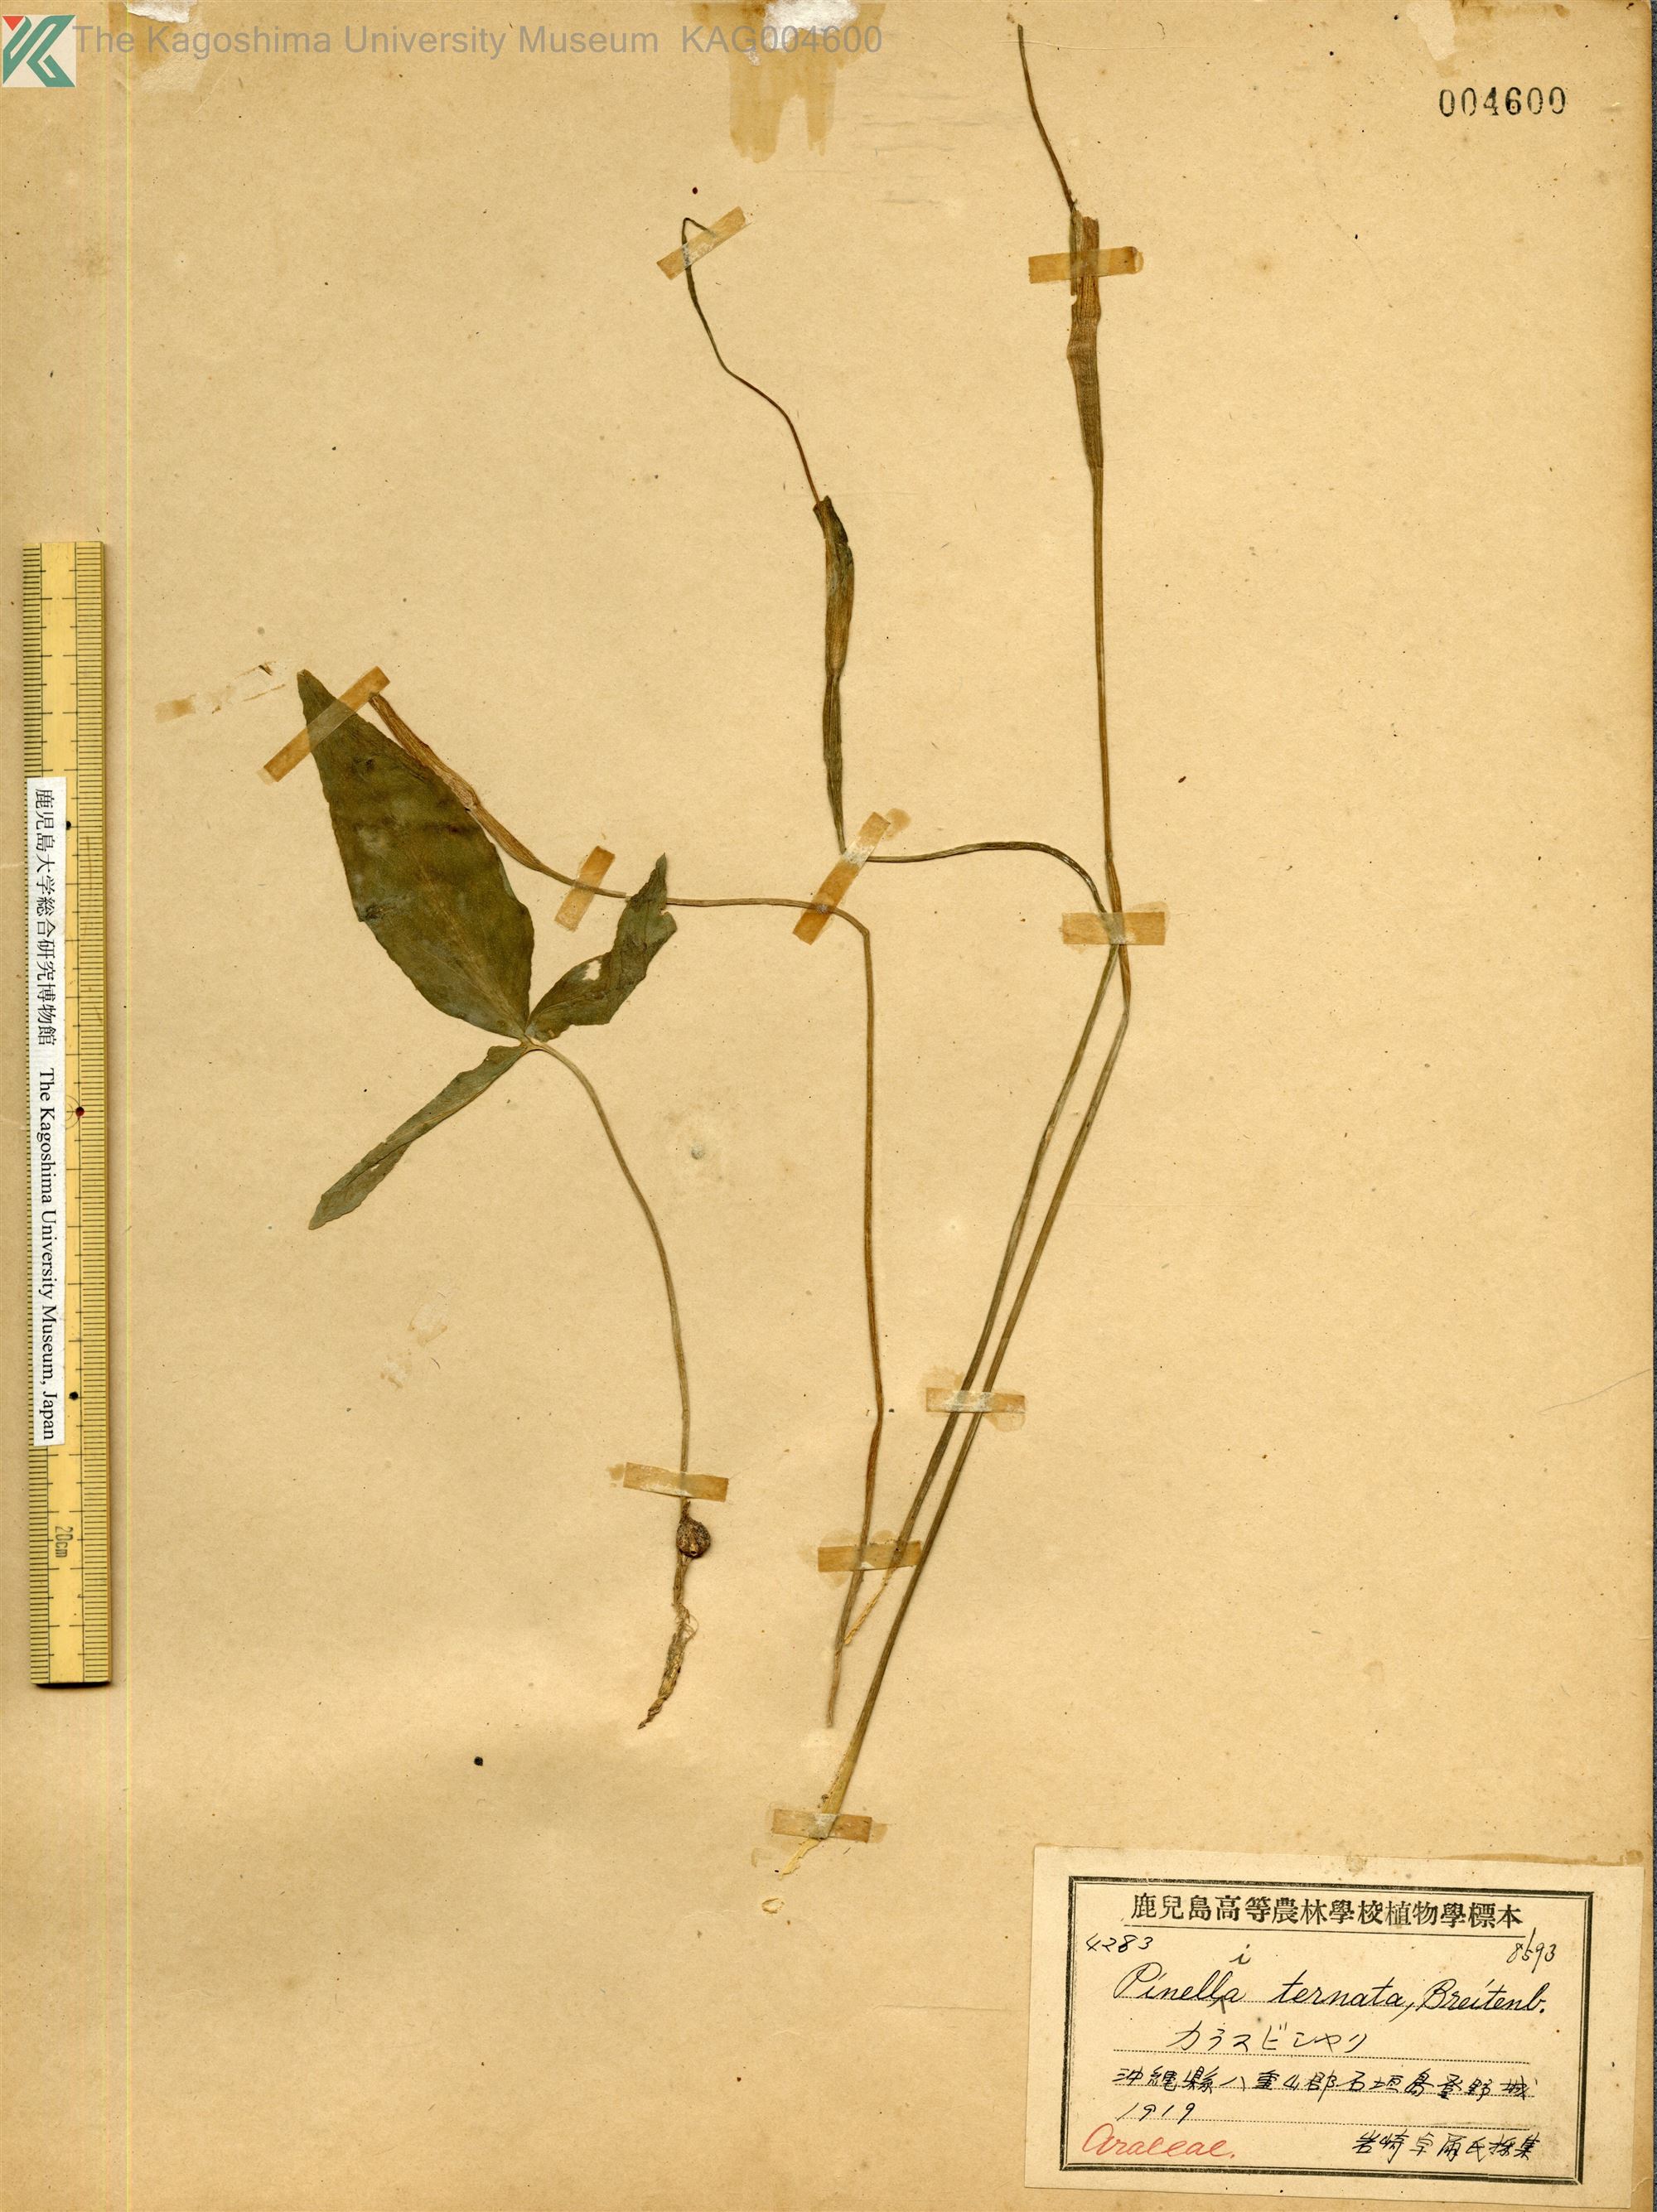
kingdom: Plantae
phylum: Tracheophyta
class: Liliopsida
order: Alismatales
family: Araceae
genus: Pinellia
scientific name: Pinellia ternata
